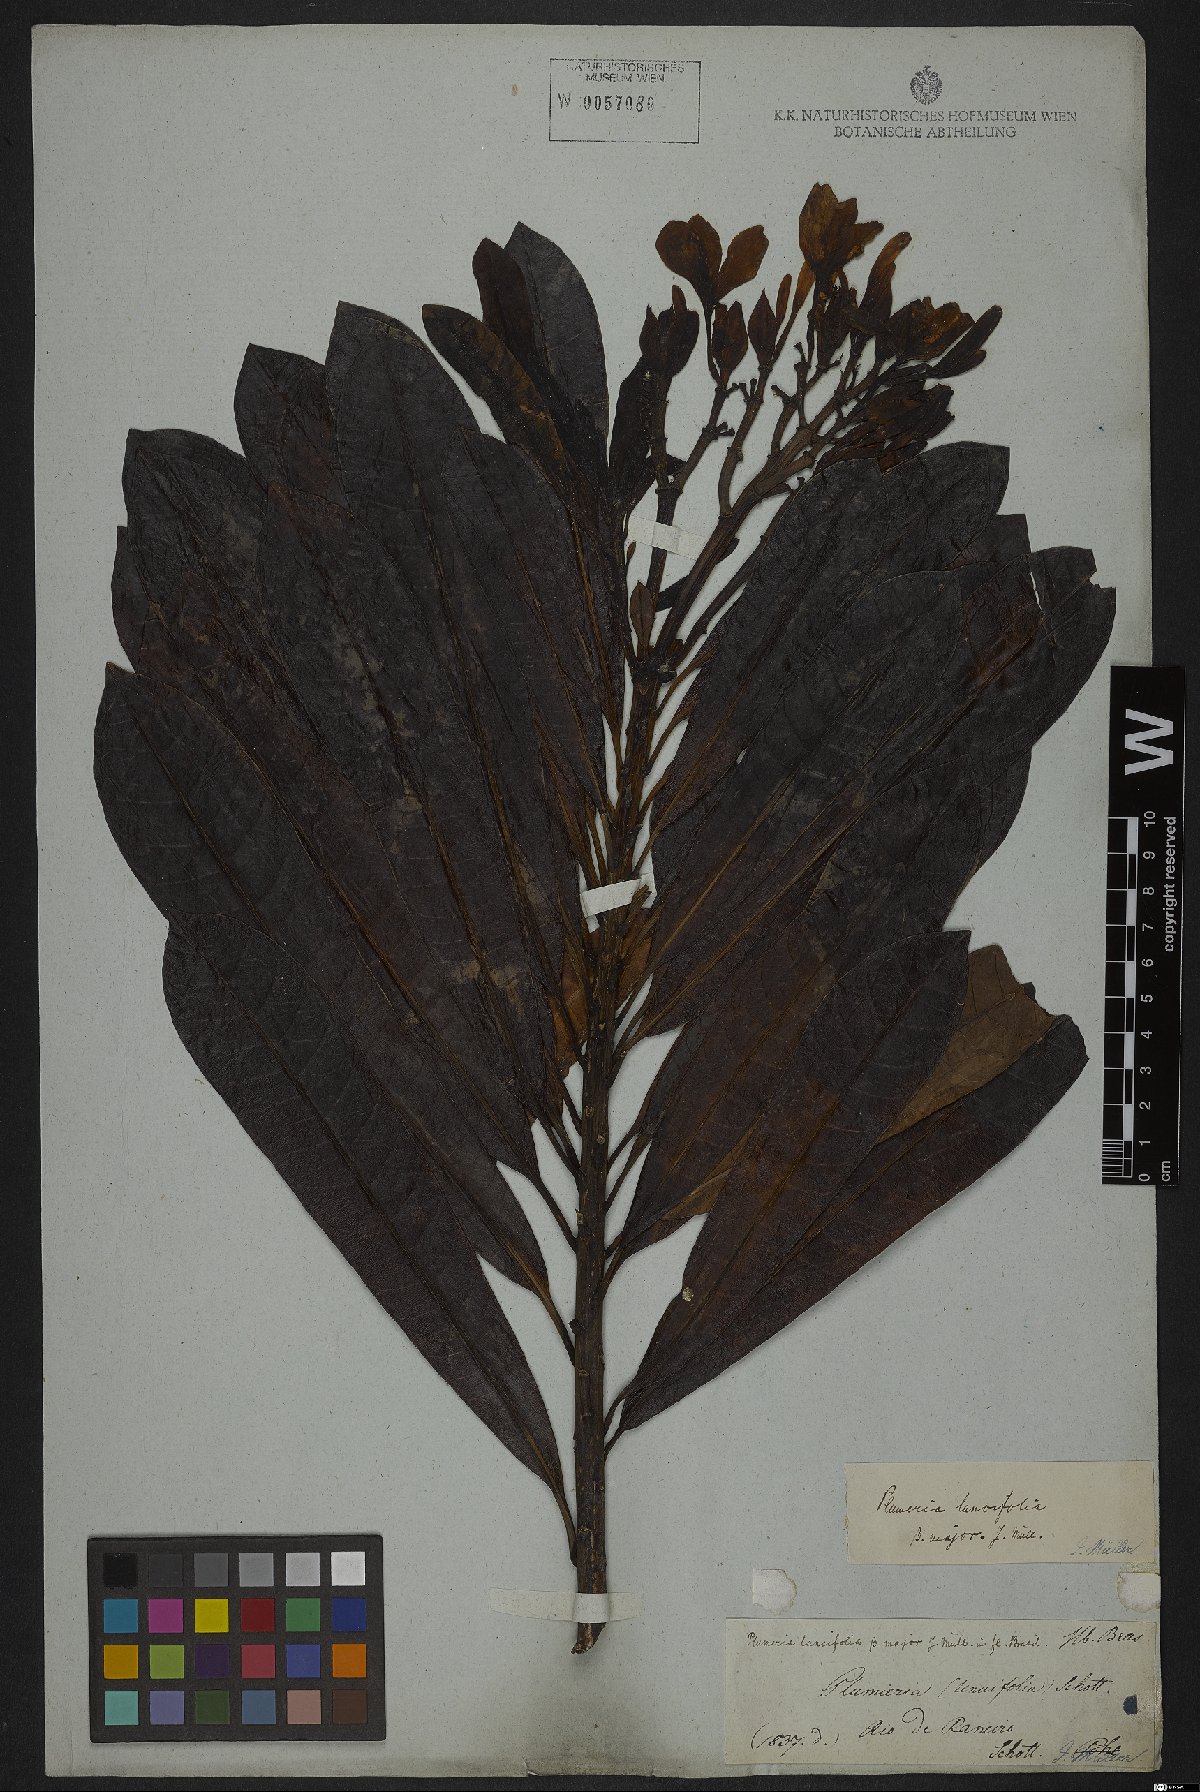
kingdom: Plantae
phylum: Tracheophyta
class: Magnoliopsida
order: Gentianales
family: Apocynaceae
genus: Himatanthus
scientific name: Himatanthus bracteatus
